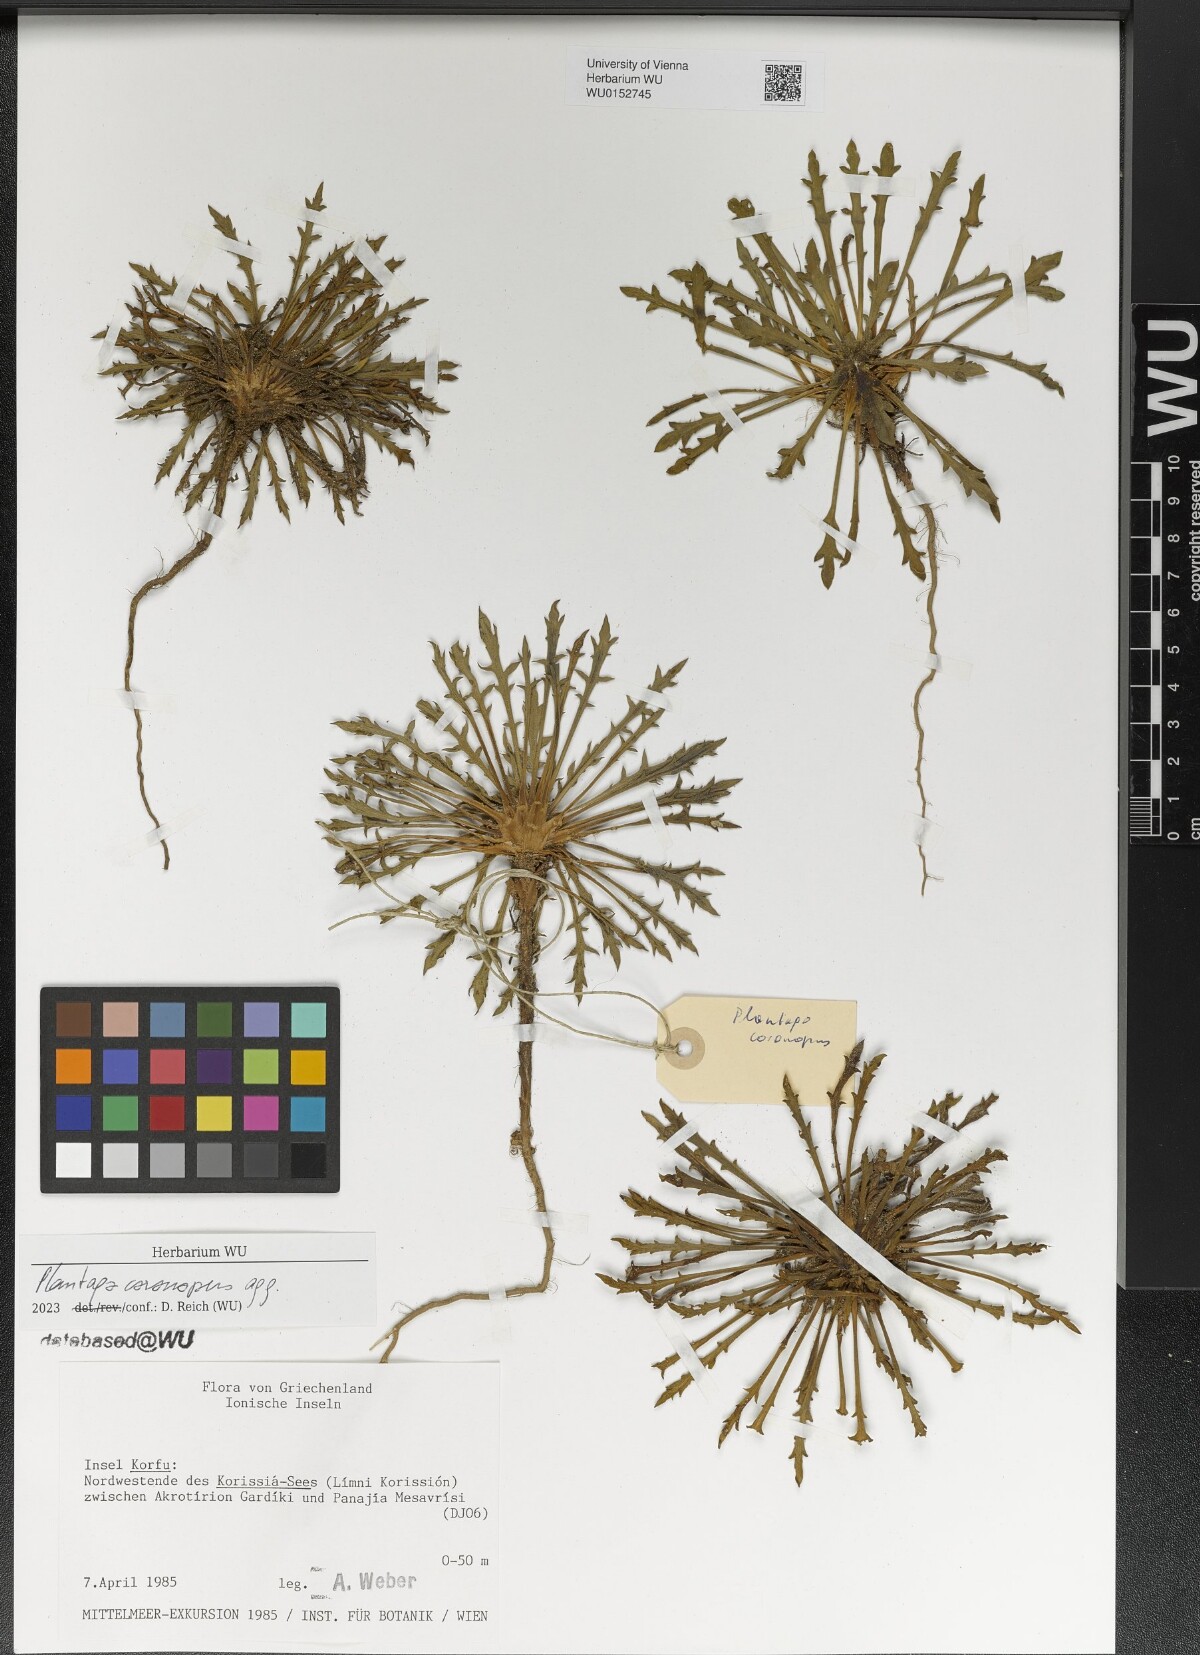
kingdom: Plantae
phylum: Tracheophyta
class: Magnoliopsida
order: Lamiales
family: Plantaginaceae
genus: Plantago
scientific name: Plantago coronopus
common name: Buck's-horn plantain
